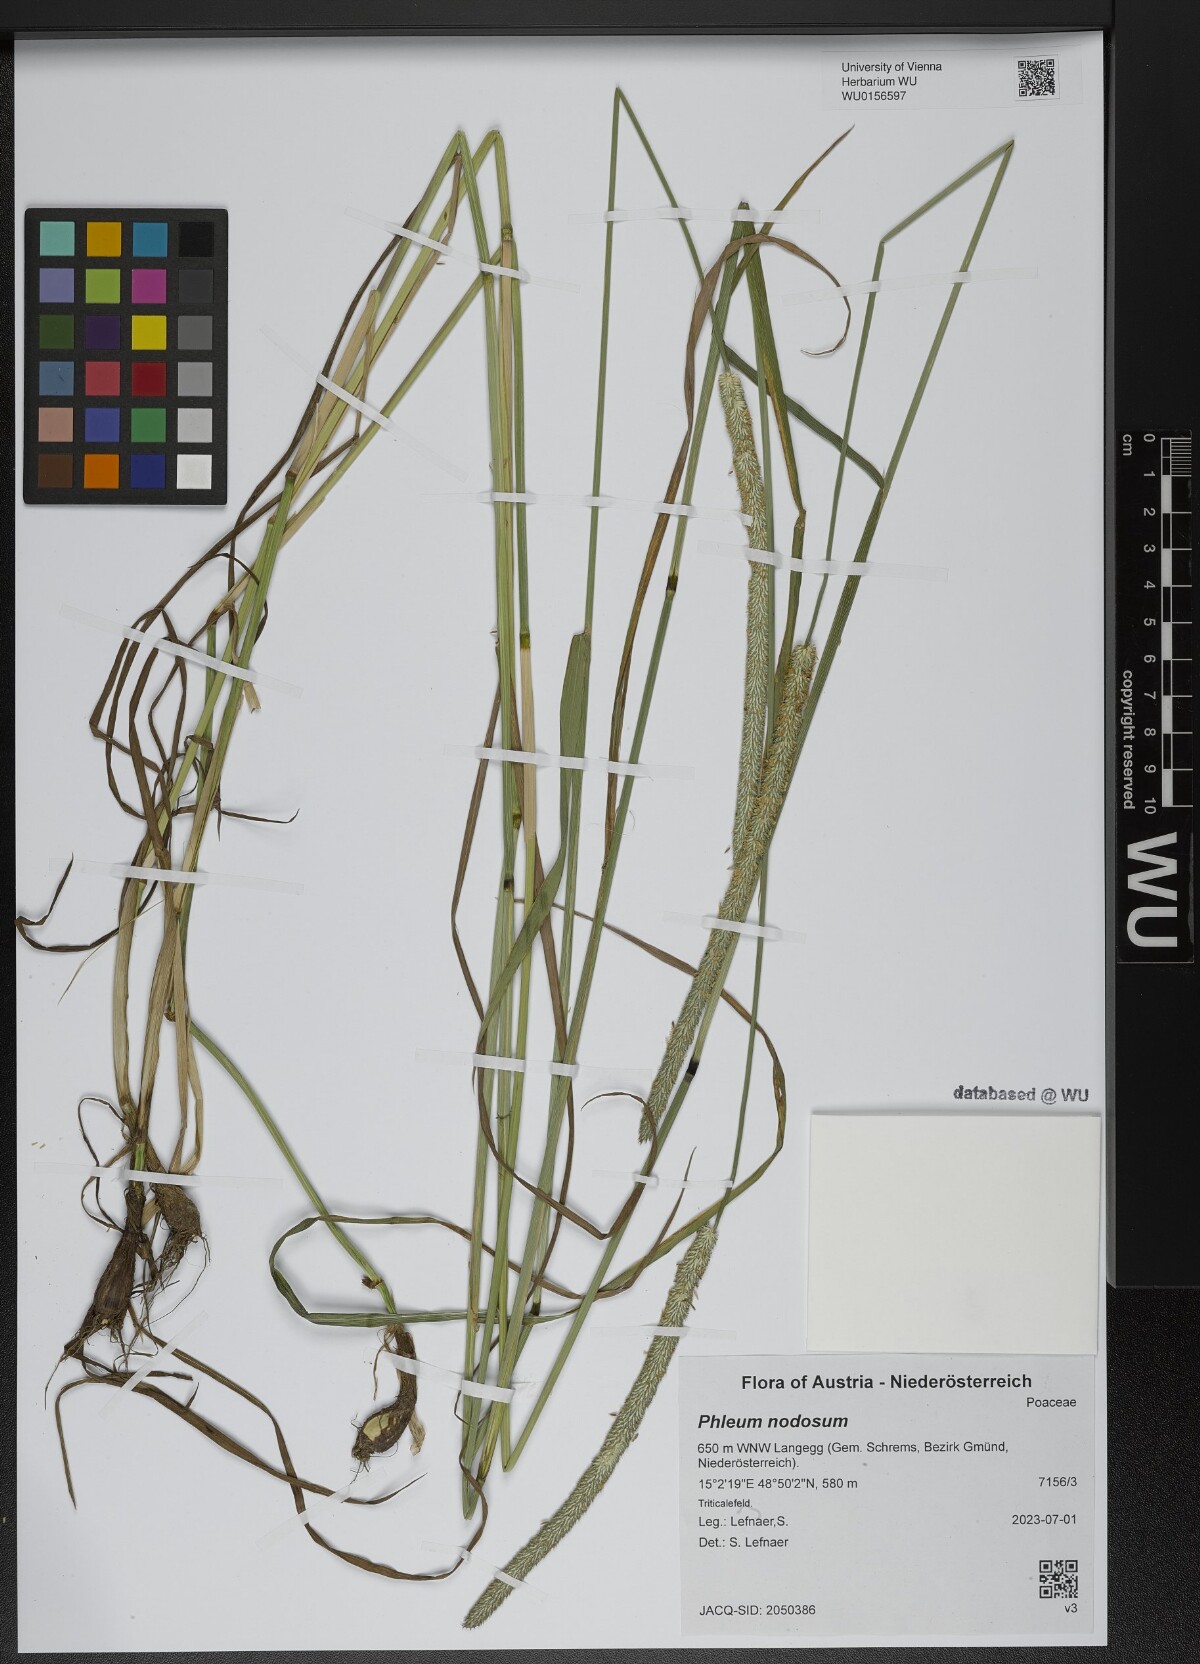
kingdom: Plantae
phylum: Tracheophyta
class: Liliopsida
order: Poales
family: Poaceae
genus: Phleum
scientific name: Phleum pratense
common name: Timothy grass
